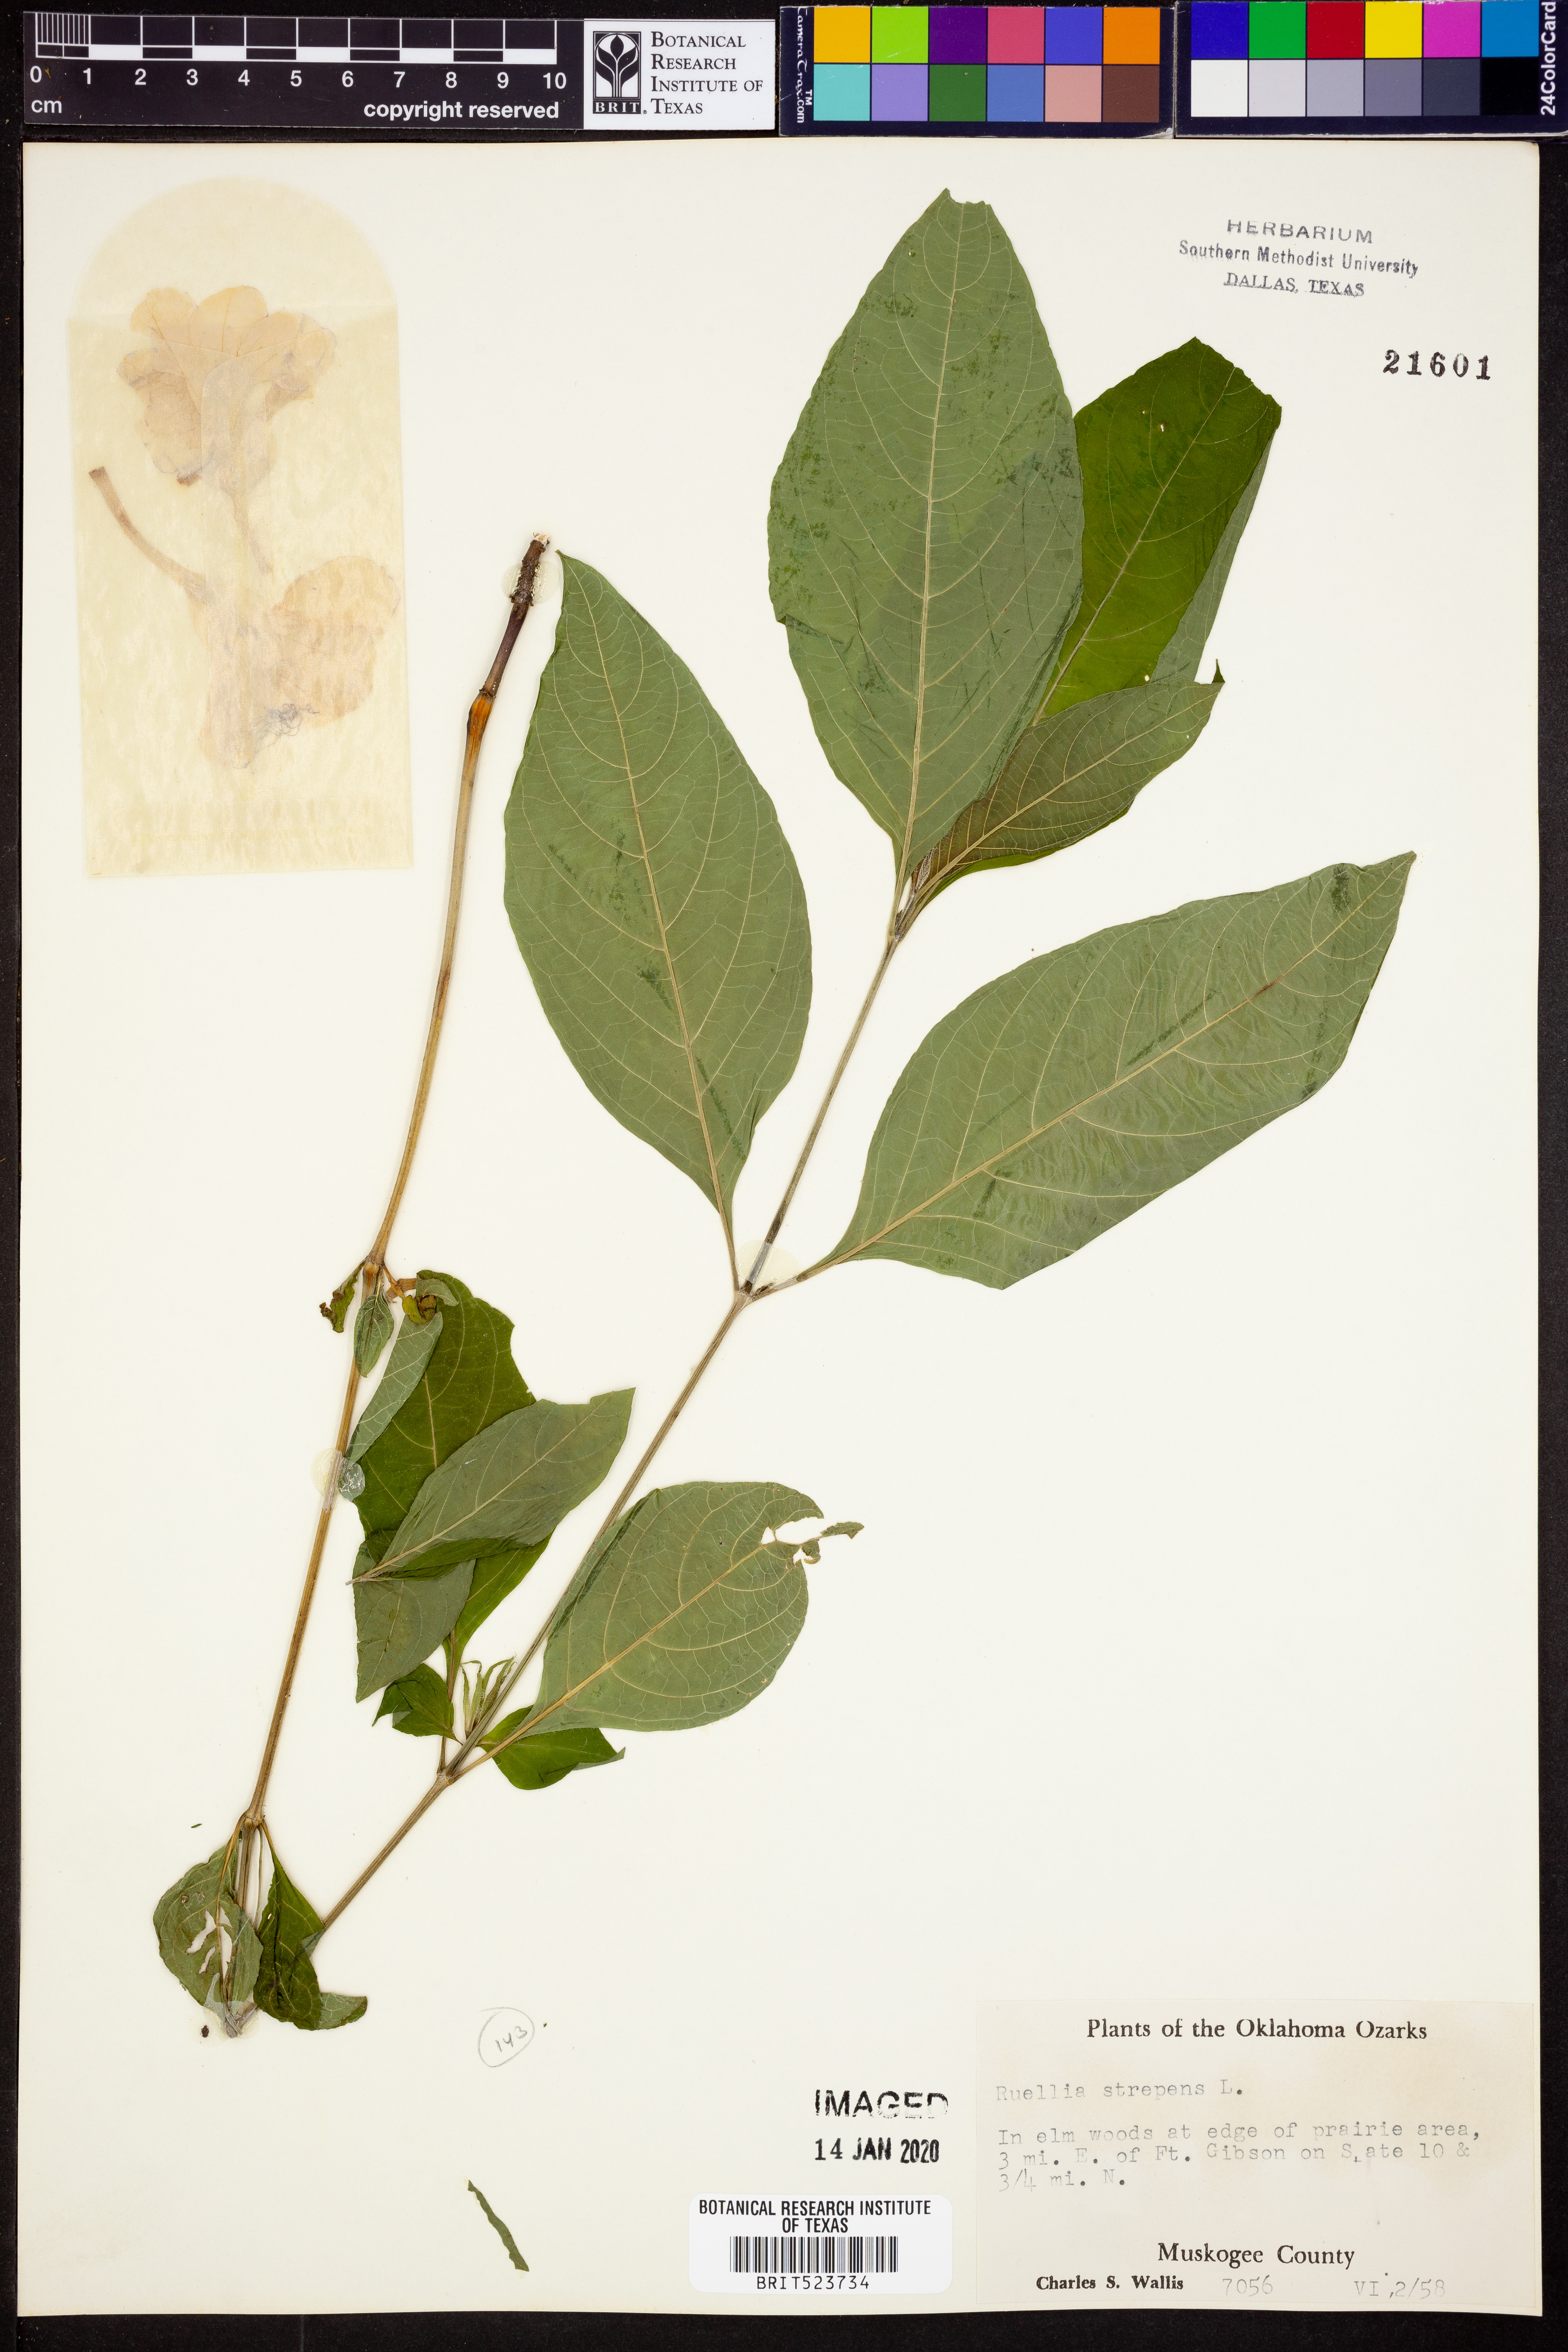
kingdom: Plantae
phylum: Tracheophyta
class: Magnoliopsida
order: Lamiales
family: Acanthaceae
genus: Ruellia
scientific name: Ruellia strepens
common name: Limestone wild petunia
